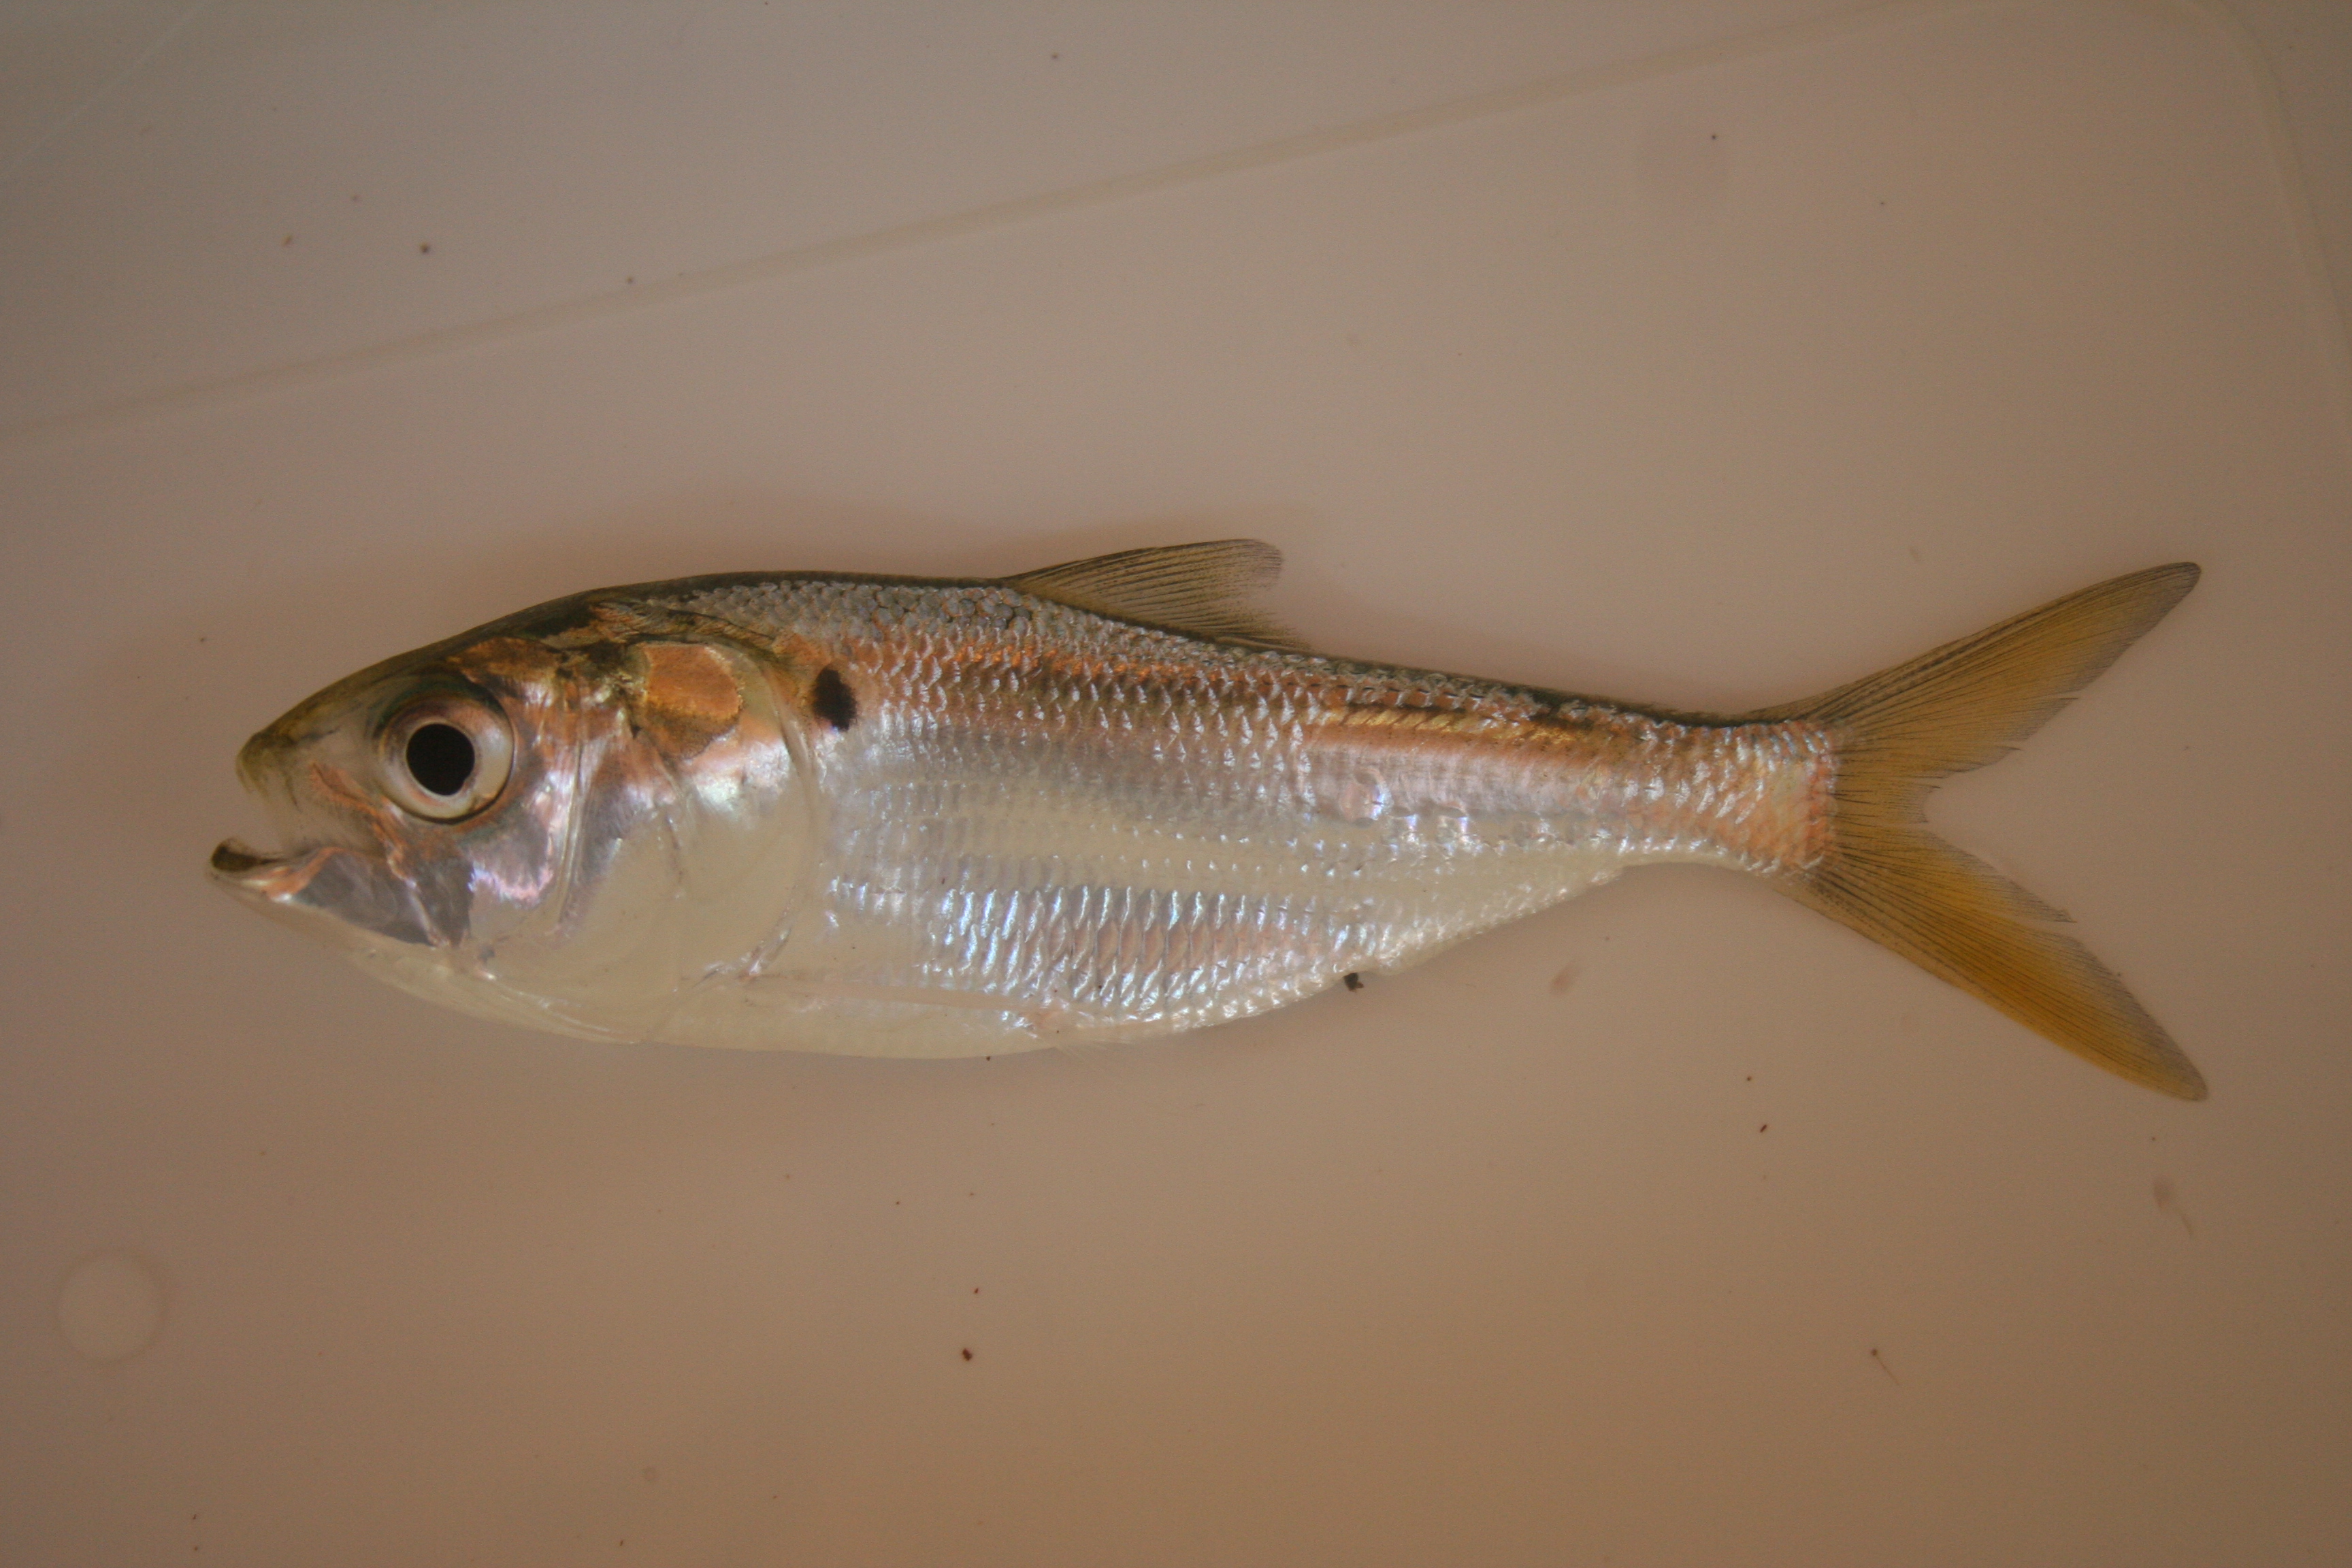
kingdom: Animalia
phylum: Chordata
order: Clupeiformes
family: Clupeidae
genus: Ethmalosa
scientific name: Ethmalosa fimbriata
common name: Bonga
